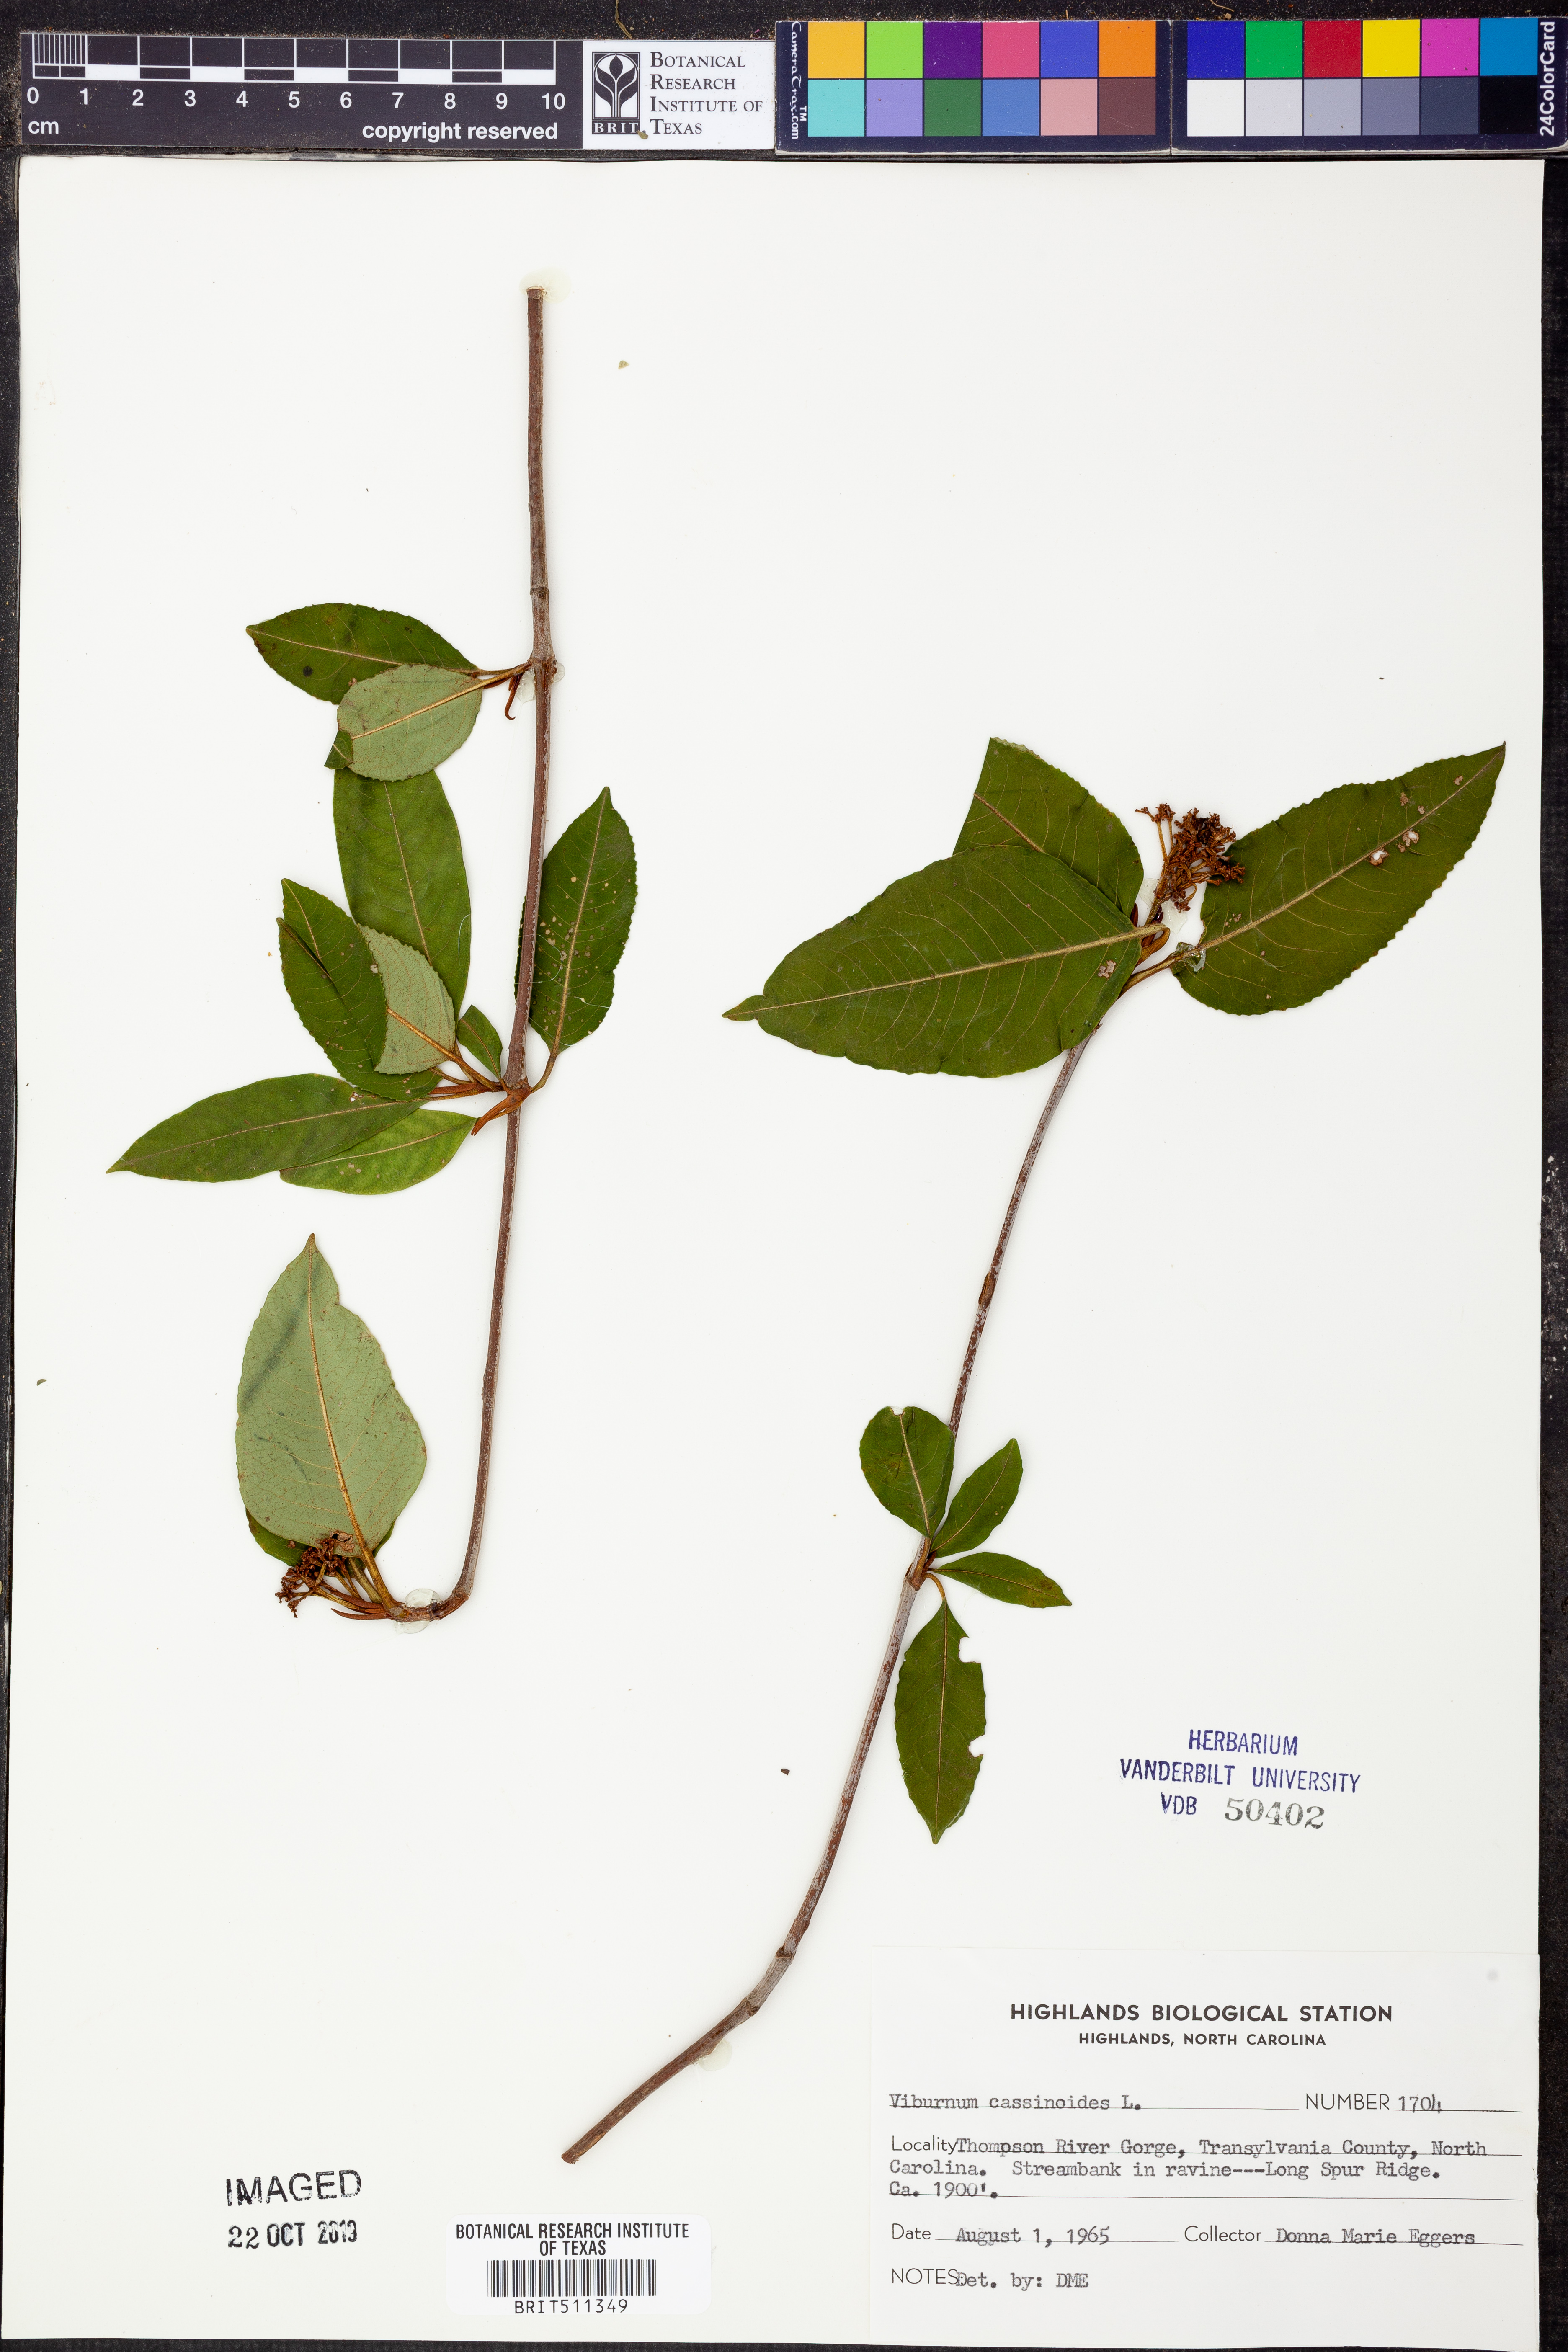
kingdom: Plantae
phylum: Tracheophyta
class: Magnoliopsida
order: Dipsacales
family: Viburnaceae
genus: Viburnum
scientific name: Viburnum cassinoides
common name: Swamp haw
